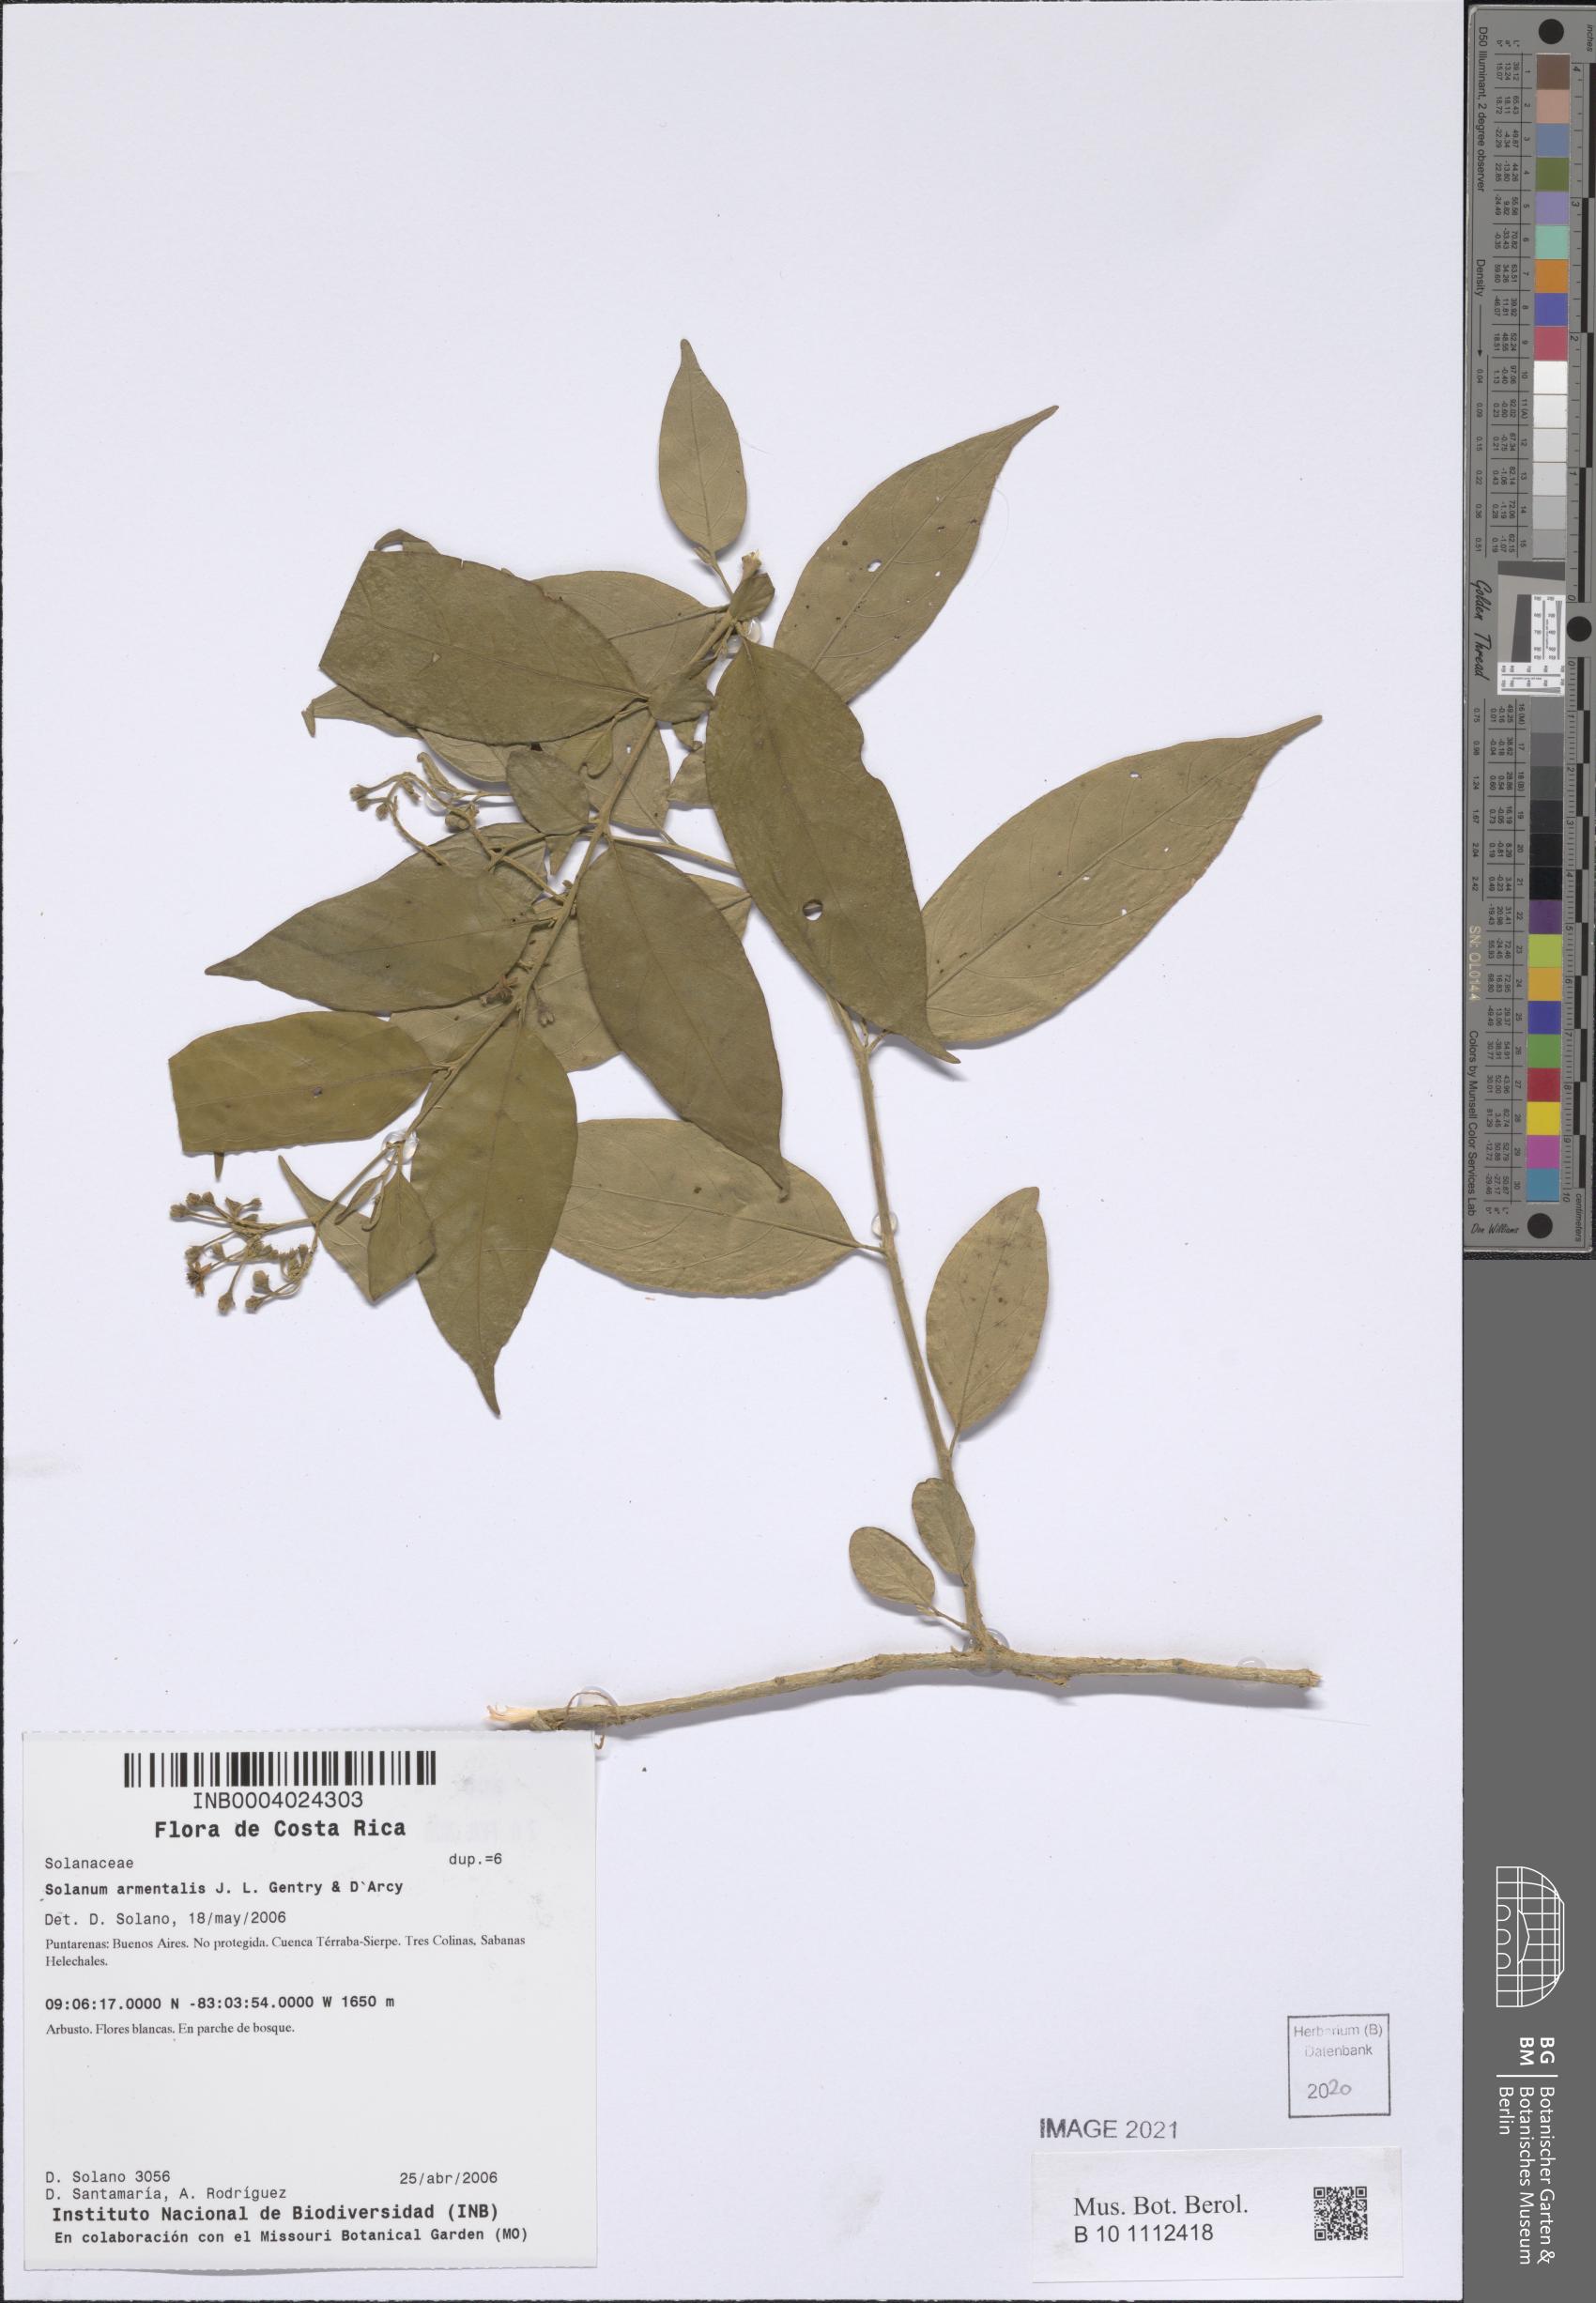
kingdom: Plantae
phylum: Tracheophyta
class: Magnoliopsida
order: Solanales
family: Solanaceae
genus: Solanum
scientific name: Solanum armentalis
